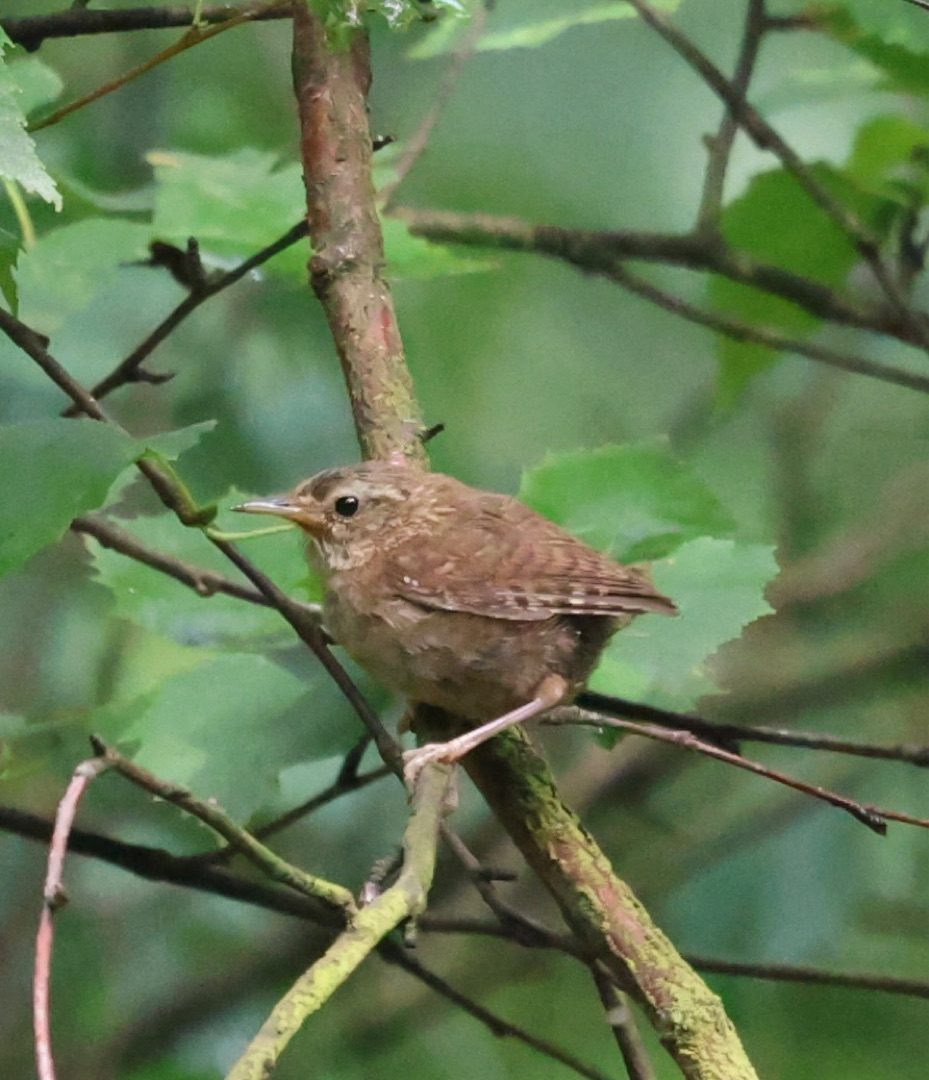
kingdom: Animalia
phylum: Chordata
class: Aves
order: Passeriformes
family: Troglodytidae
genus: Troglodytes
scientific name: Troglodytes troglodytes
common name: Gærdesmutte
